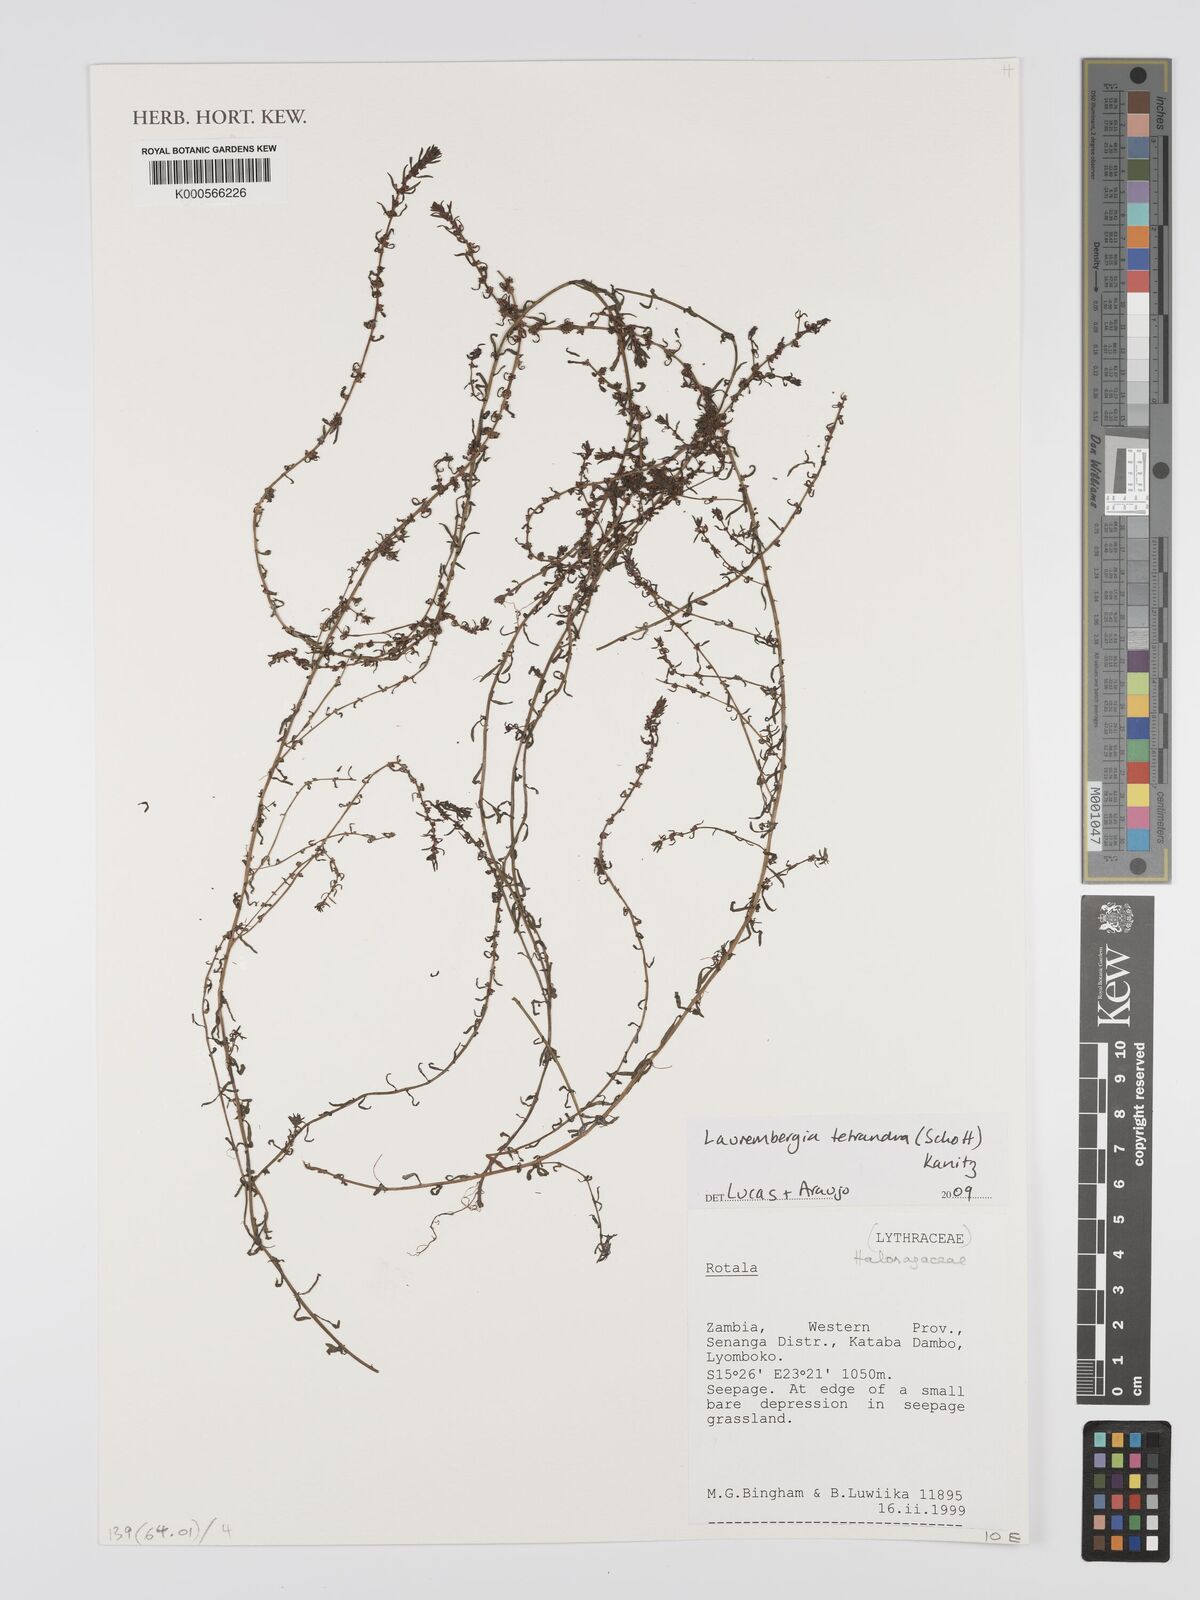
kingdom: Plantae
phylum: Tracheophyta
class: Magnoliopsida
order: Myrtales
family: Lythraceae
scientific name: Lythraceae
